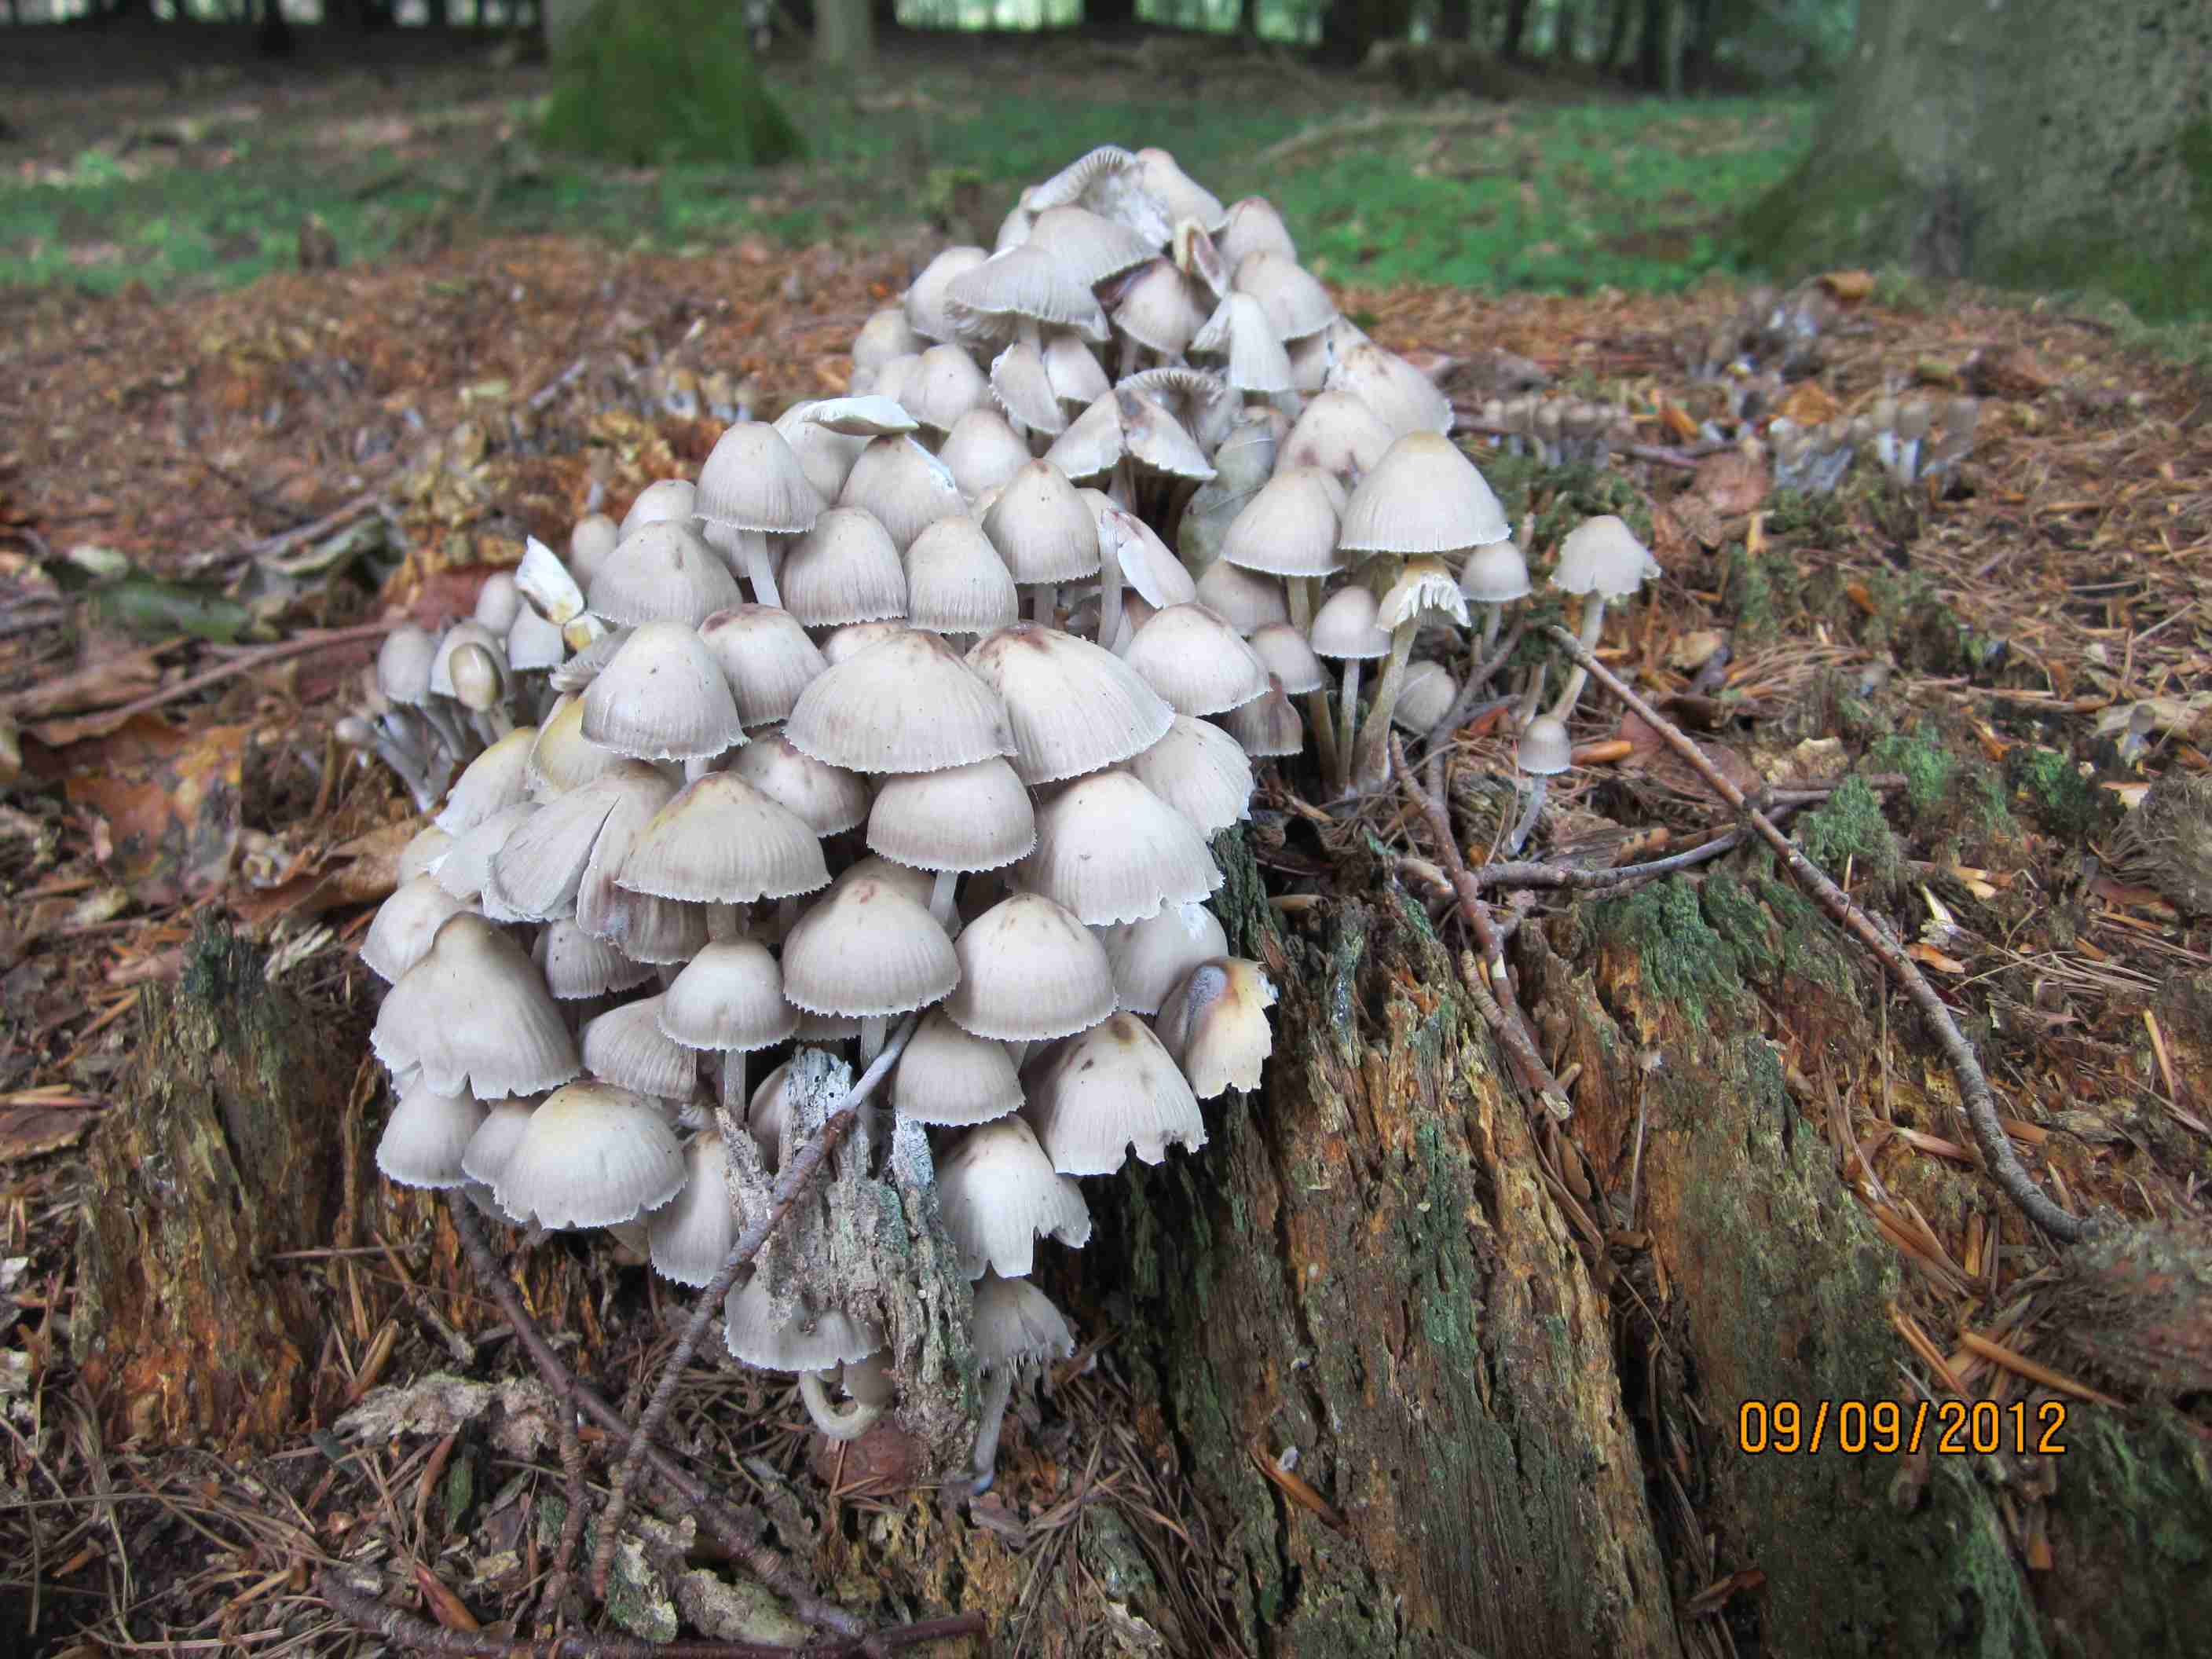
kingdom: Fungi
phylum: Basidiomycota
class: Agaricomycetes
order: Agaricales
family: Mycenaceae
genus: Mycena
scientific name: Mycena inclinata
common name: nikkende huesvamp
